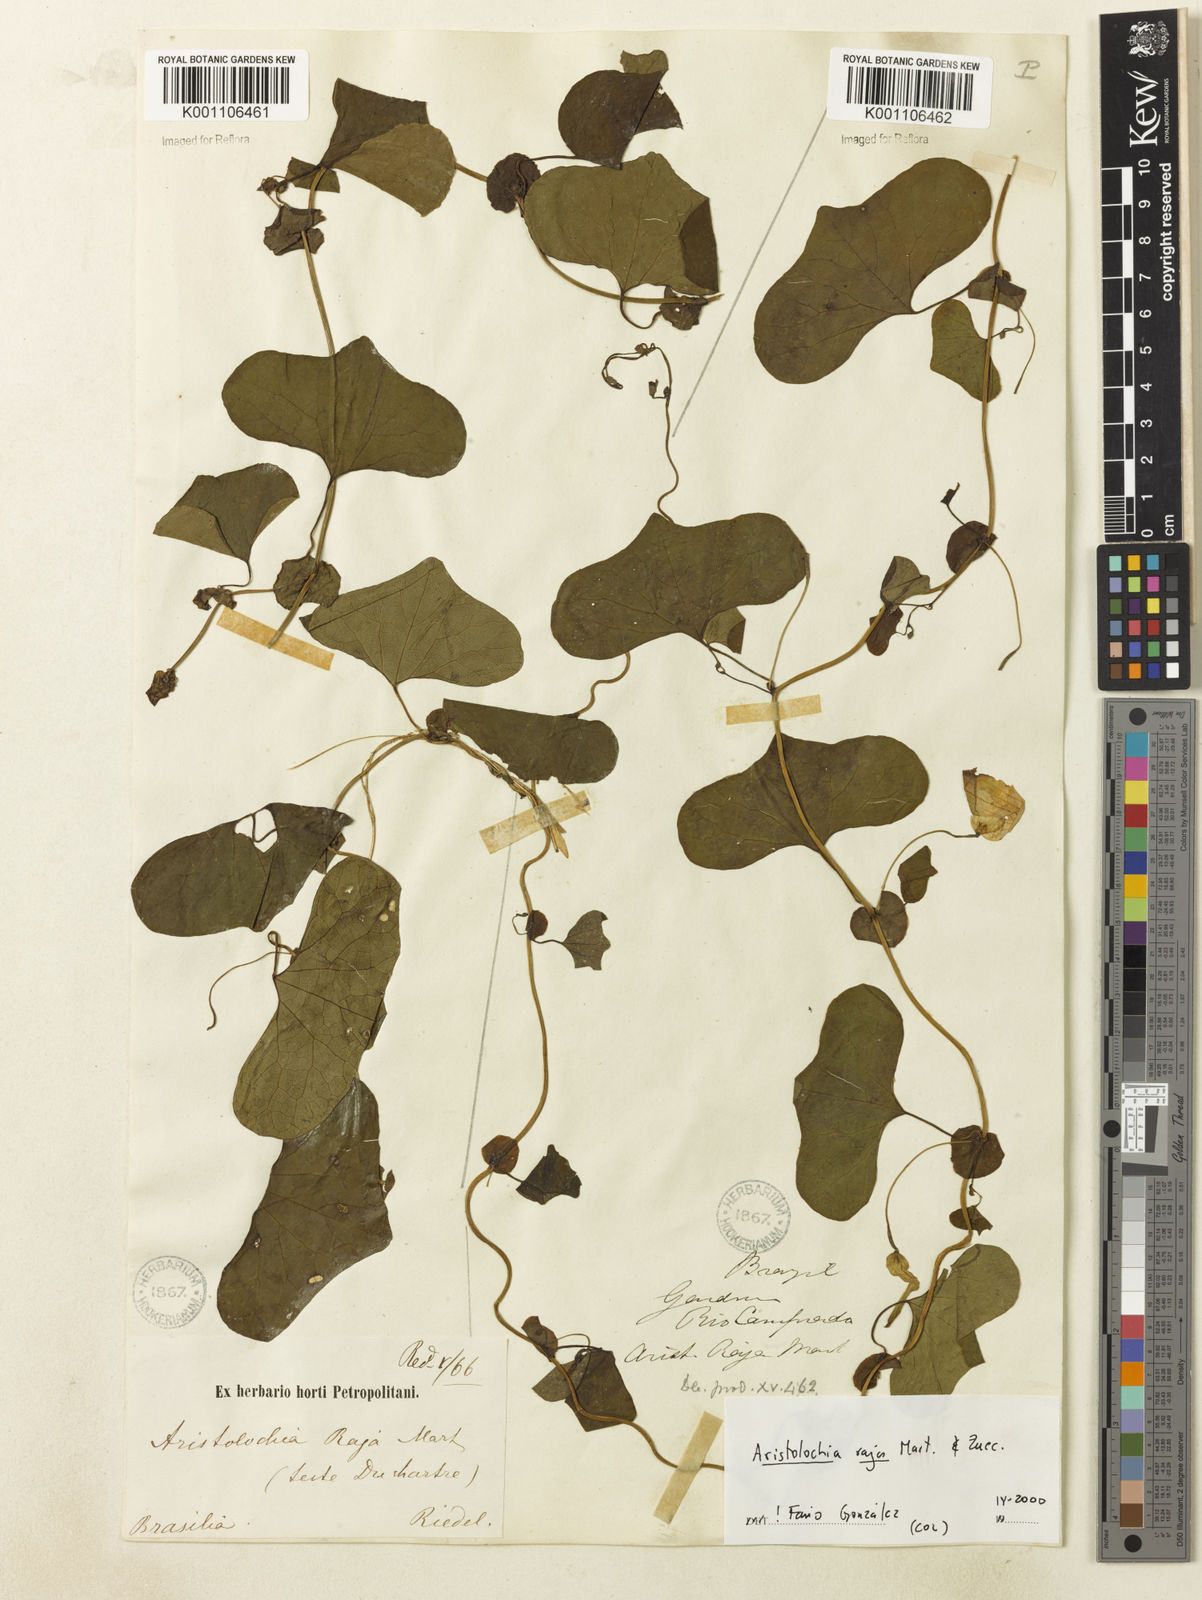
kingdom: Plantae
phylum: Tracheophyta
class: Magnoliopsida
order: Piperales
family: Aristolochiaceae
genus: Aristolochia
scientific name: Aristolochia raja
